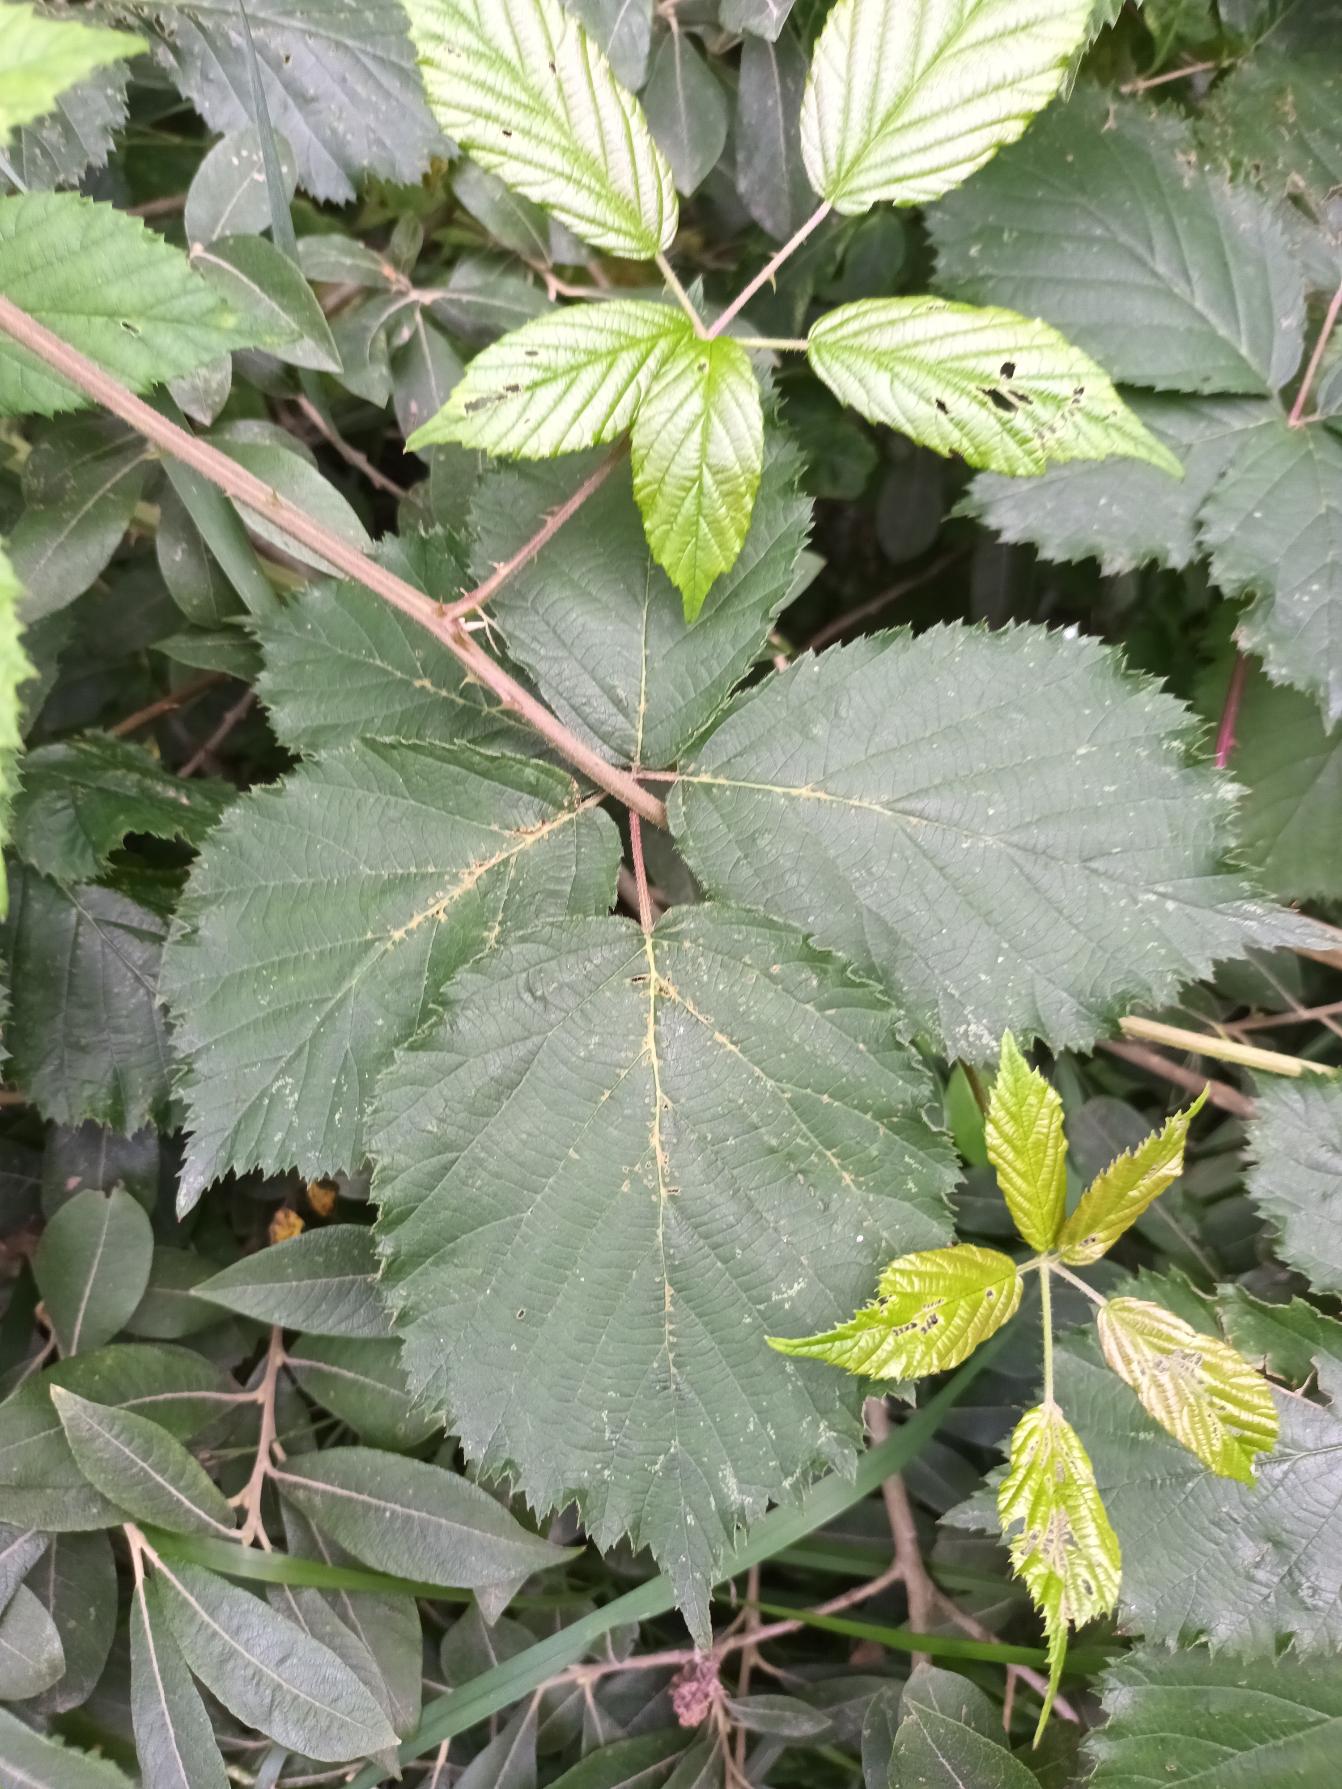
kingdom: Plantae
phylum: Tracheophyta
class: Magnoliopsida
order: Rosales
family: Rosaceae
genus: Rubus
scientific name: Rubus wahlbergii
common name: Wahlbergs hasselbrombær
